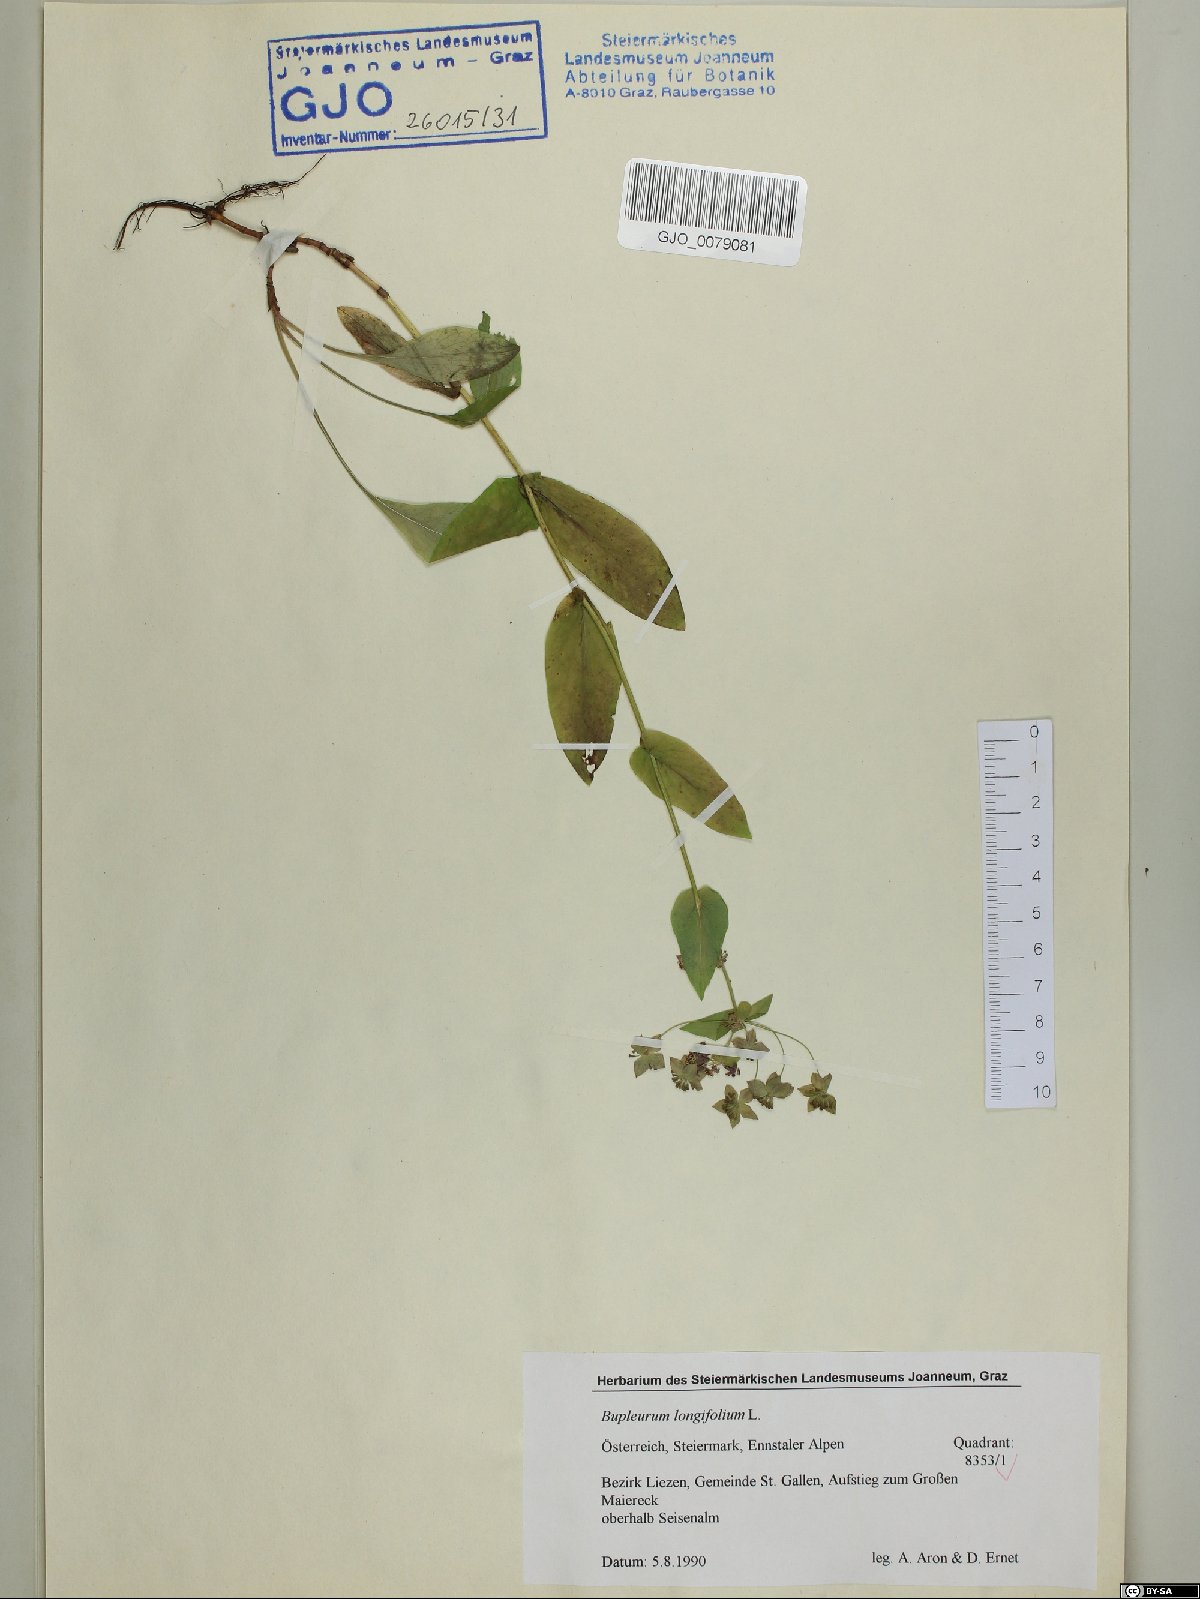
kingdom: Plantae
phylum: Tracheophyta
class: Magnoliopsida
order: Apiales
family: Apiaceae
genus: Bupleurum
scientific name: Bupleurum longifolium
